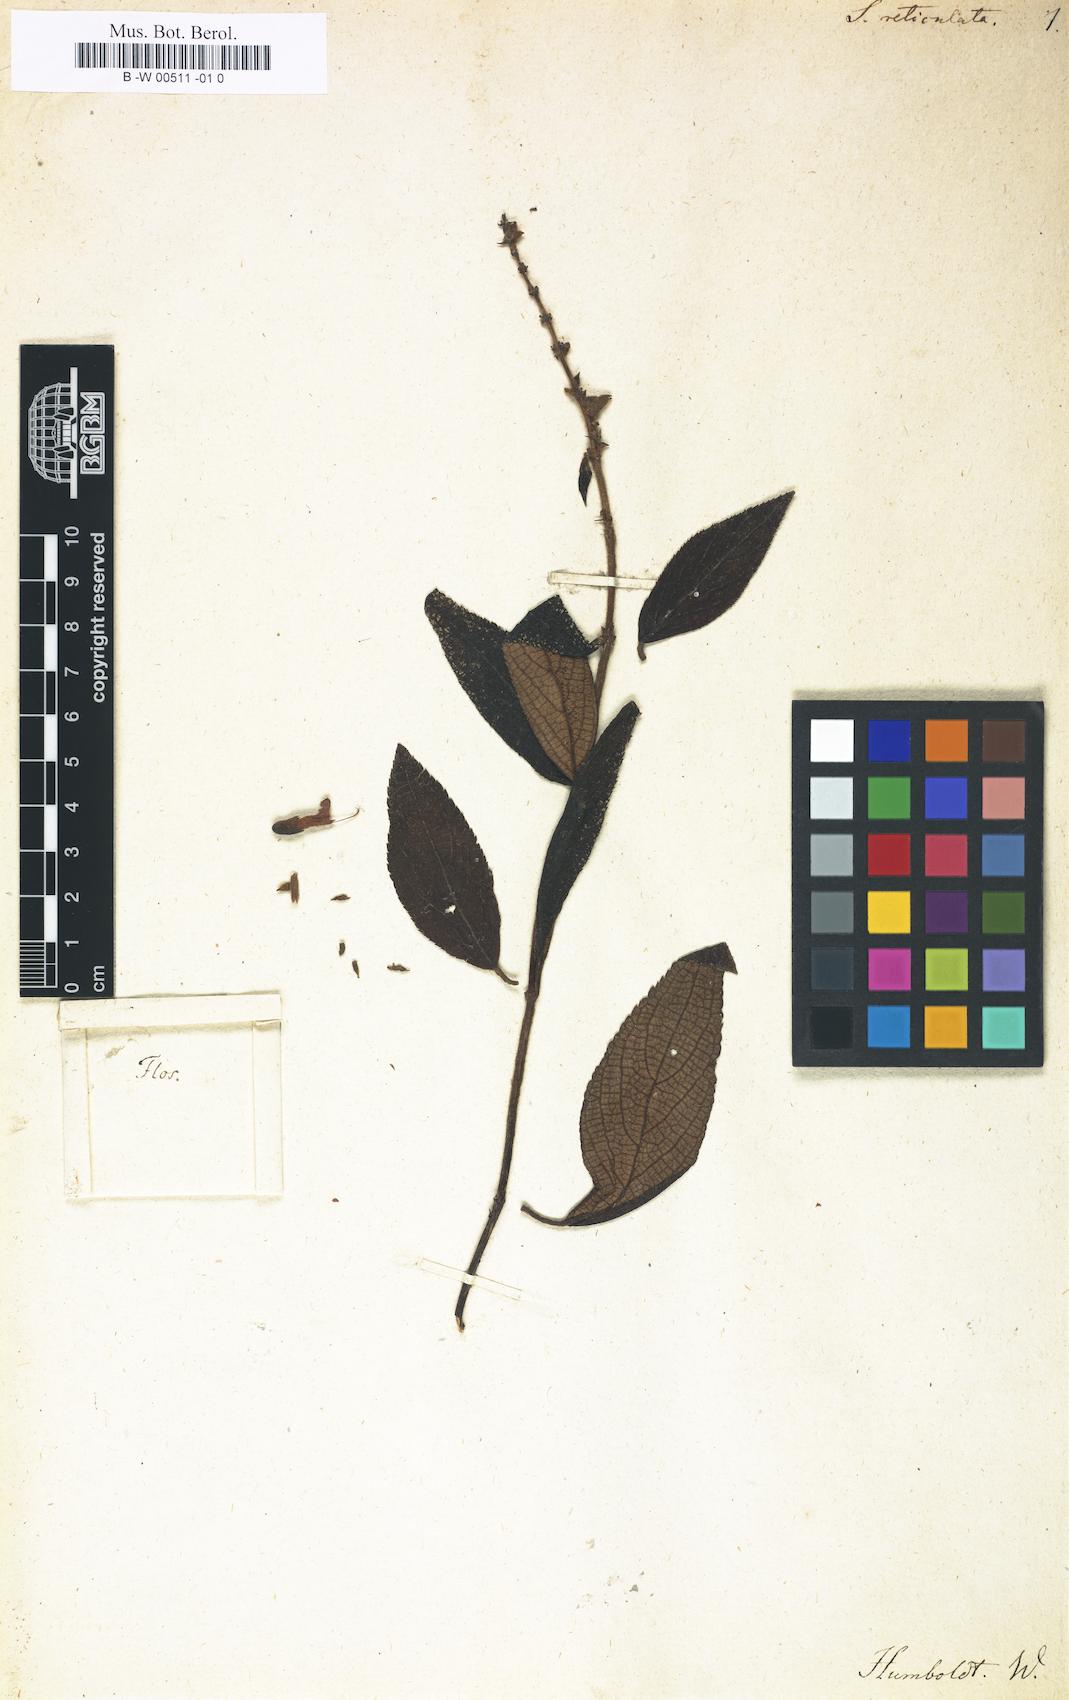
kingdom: Plantae
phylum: Tracheophyta
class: Magnoliopsida
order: Lamiales
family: Lamiaceae
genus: Salvia
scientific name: Salvia prunelloides
